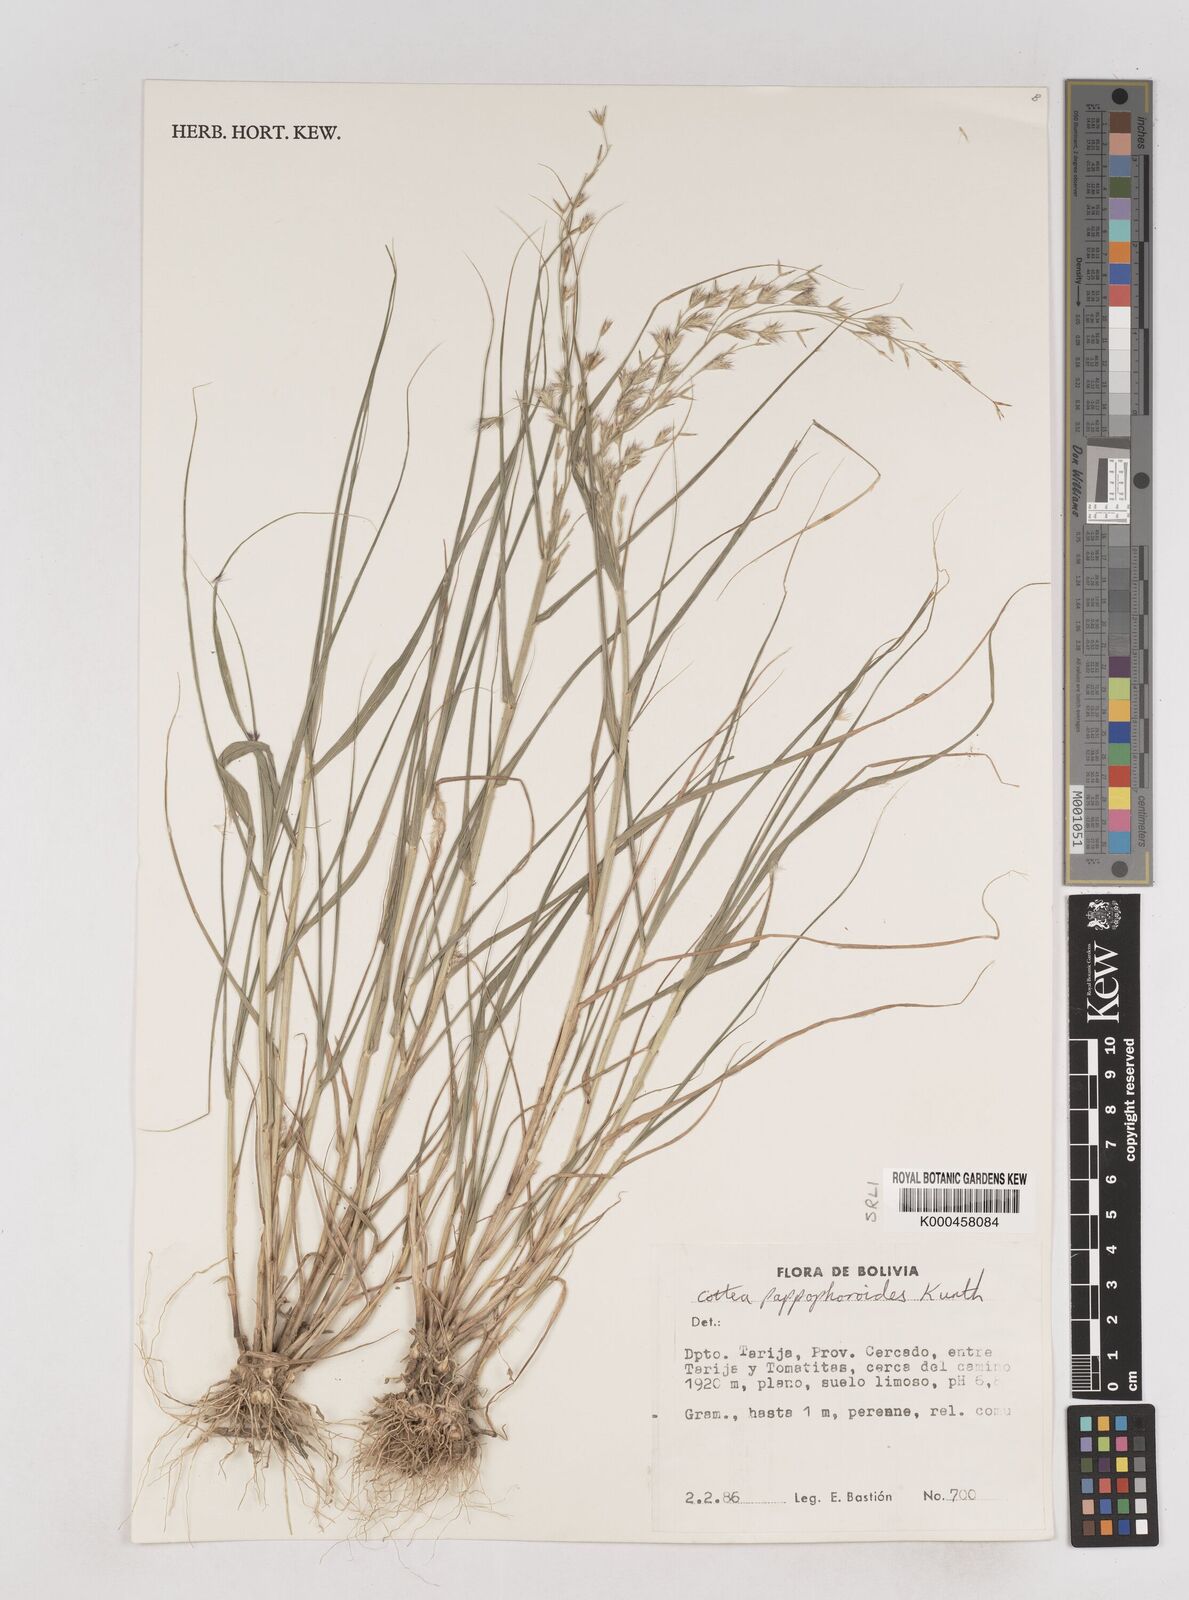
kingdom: Plantae
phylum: Tracheophyta
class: Liliopsida
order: Poales
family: Poaceae
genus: Cottea
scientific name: Cottea
